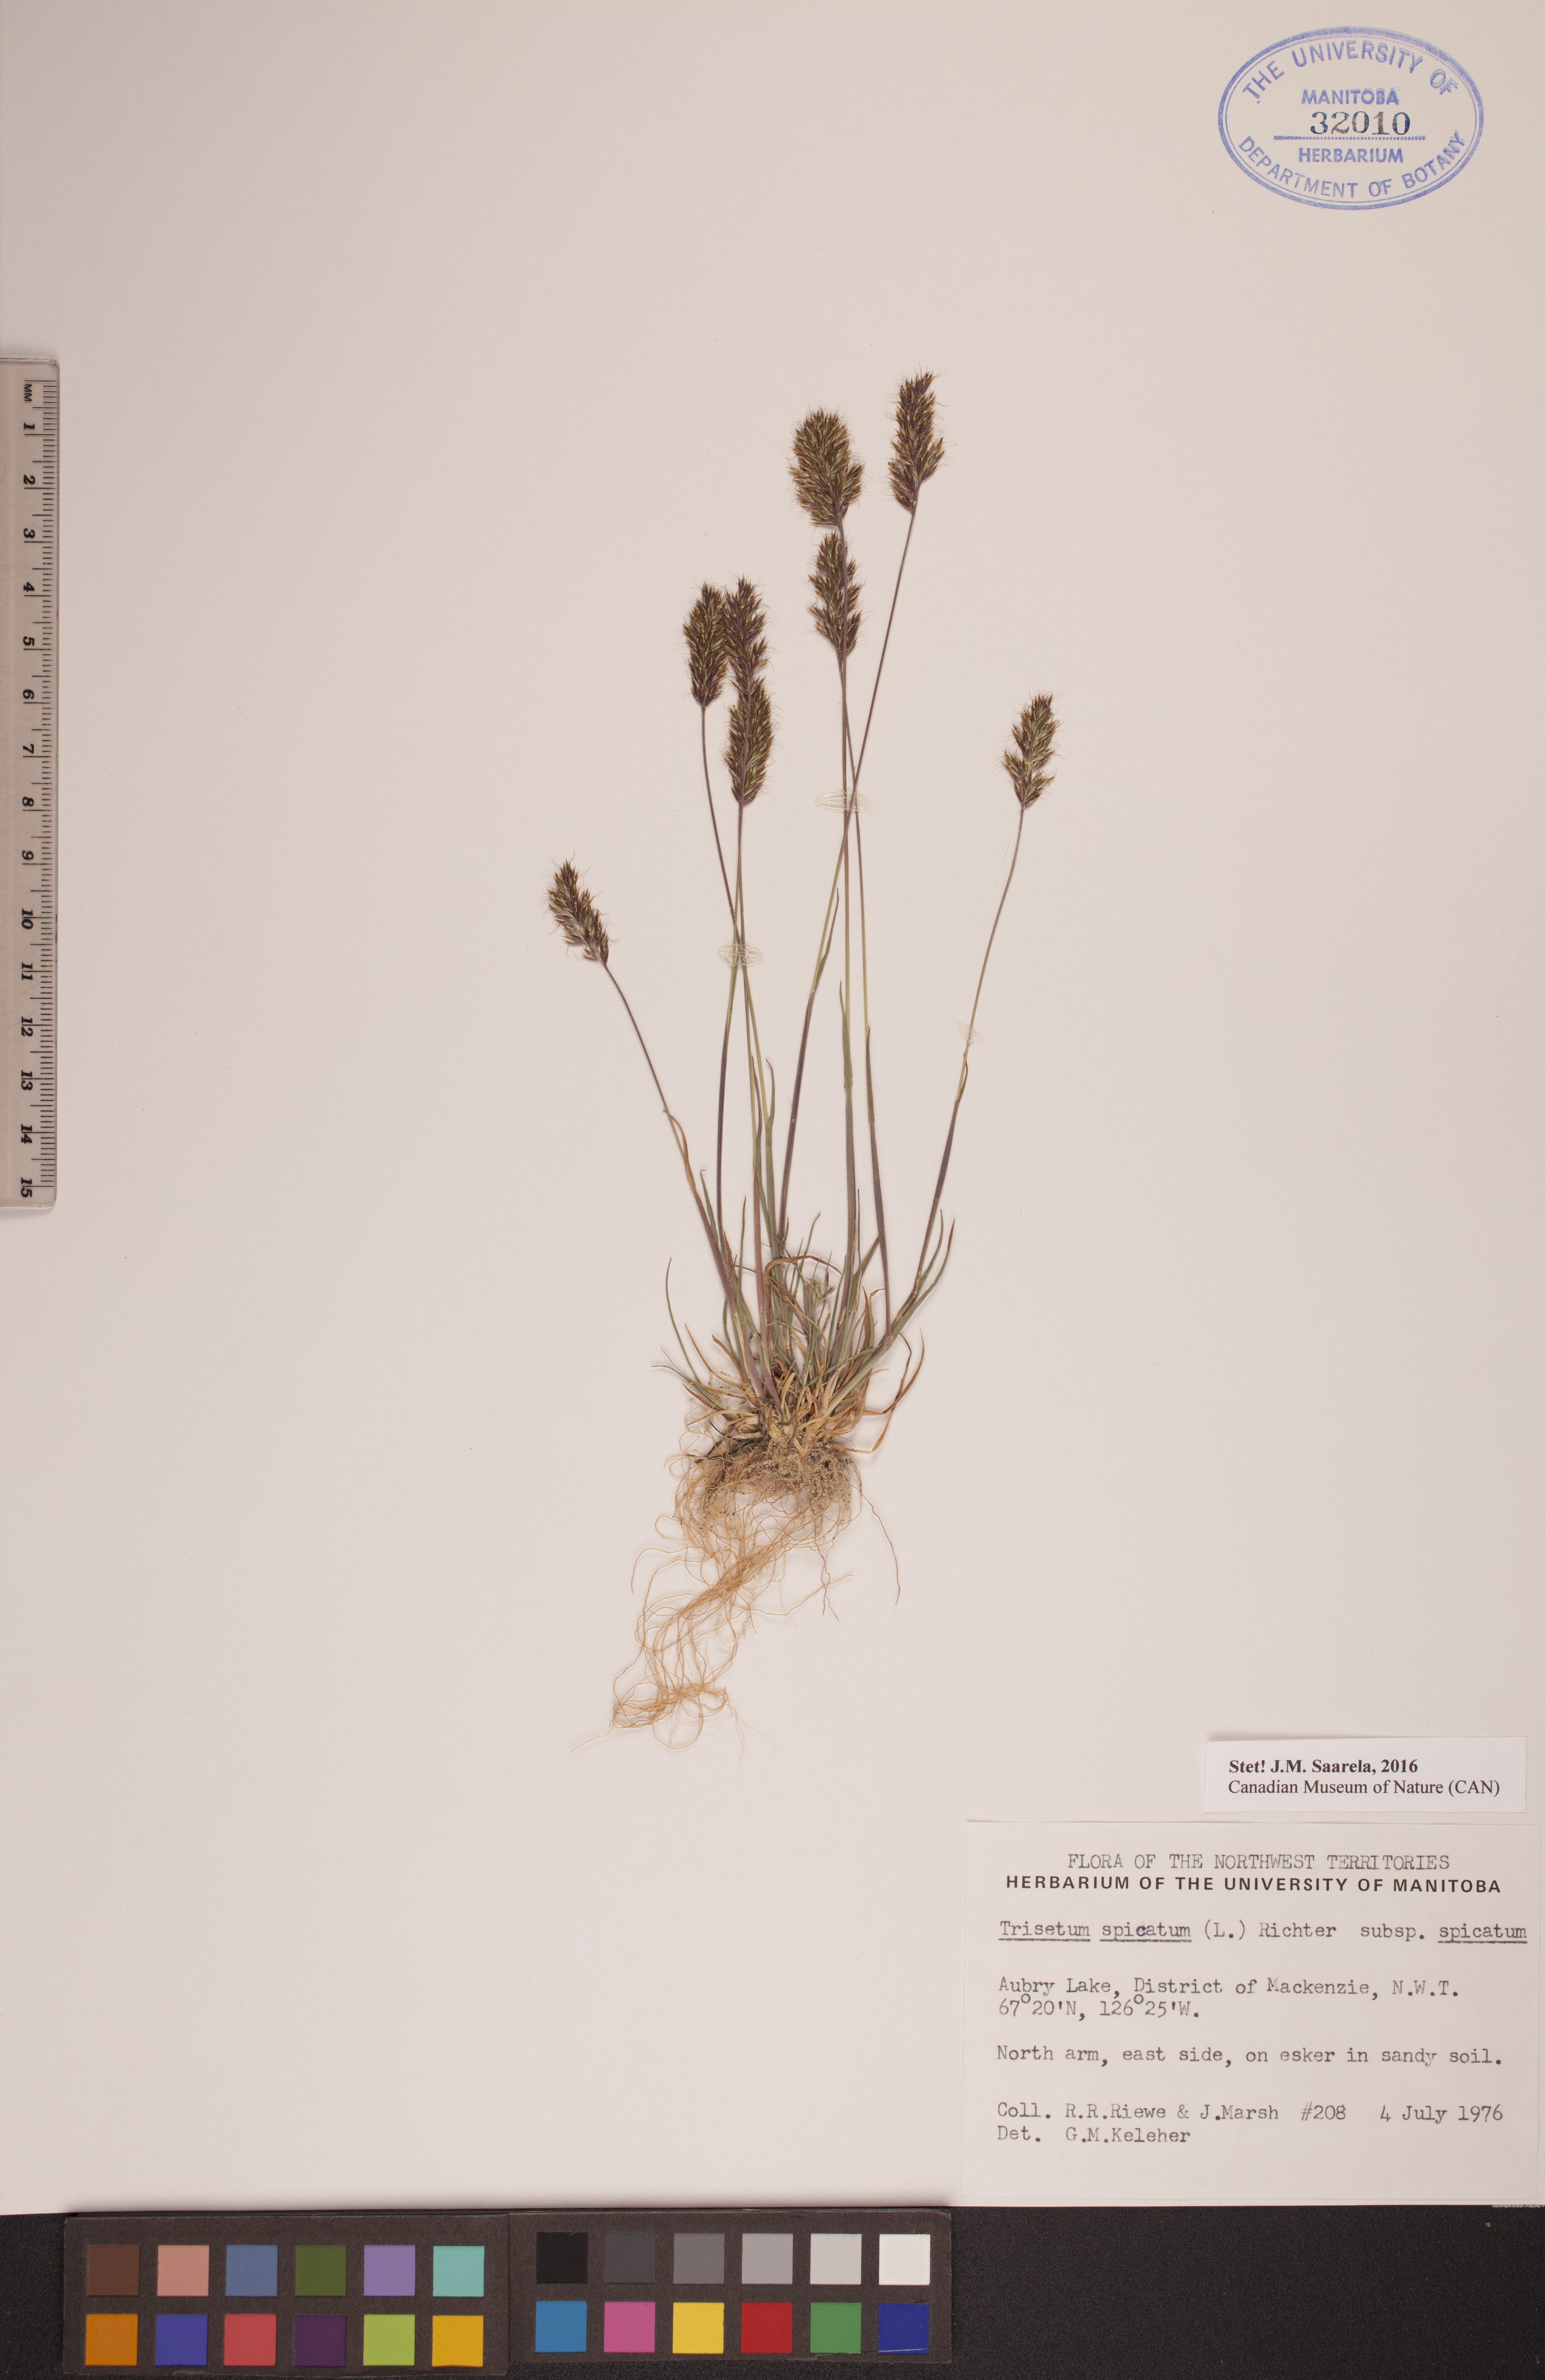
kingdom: Plantae
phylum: Tracheophyta
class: Liliopsida
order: Poales
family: Poaceae
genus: Koeleria
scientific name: Koeleria spicata
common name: Mountain trisetum
